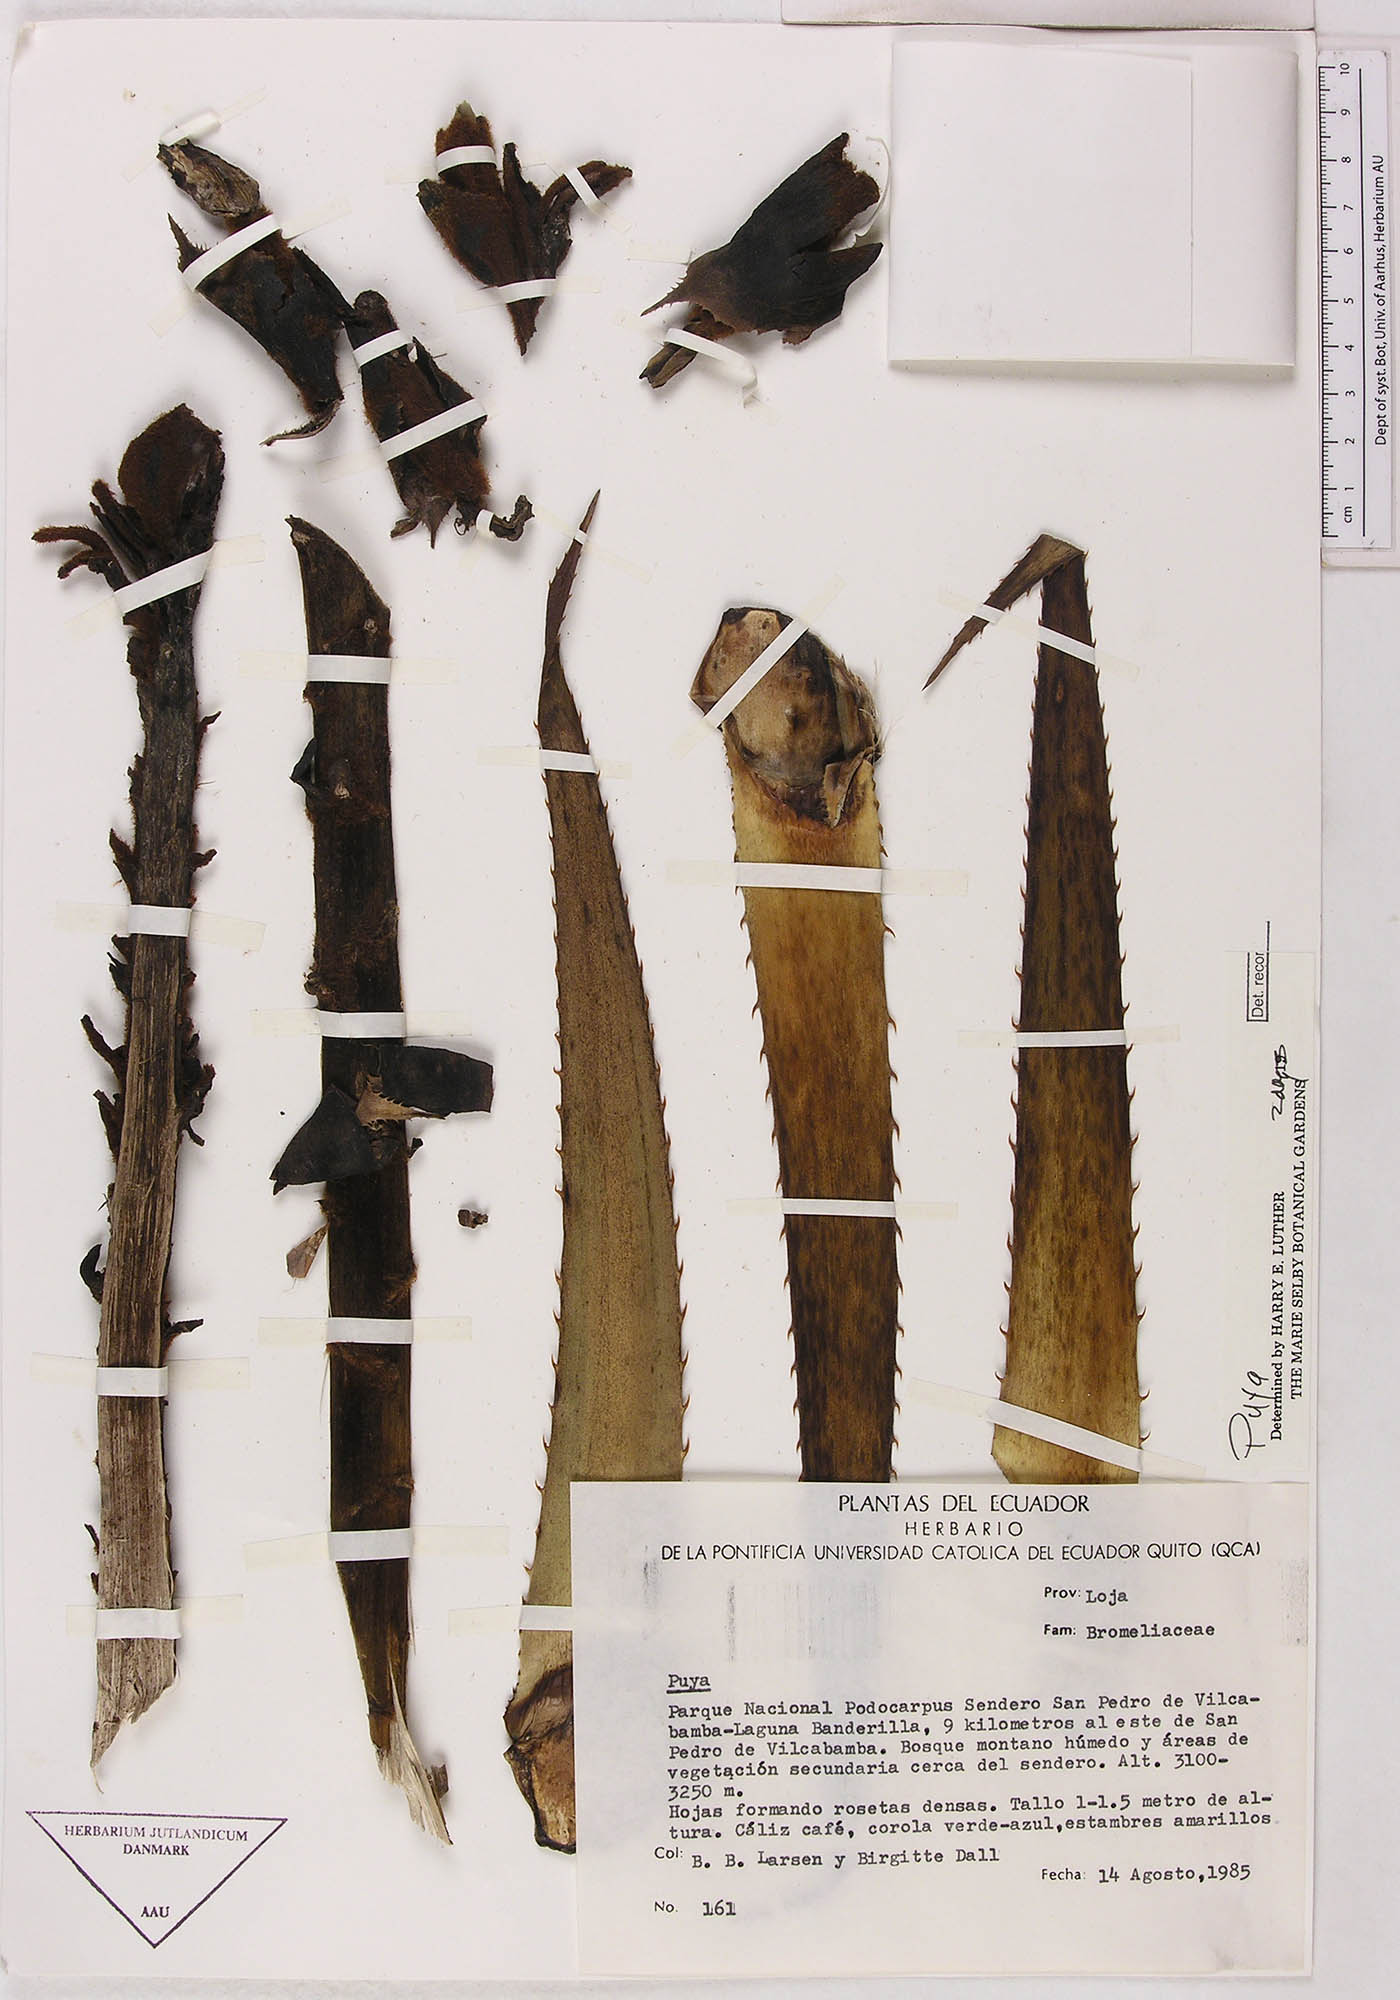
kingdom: Plantae
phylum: Tracheophyta
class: Liliopsida
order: Poales
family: Bromeliaceae
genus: Puya
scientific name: Puya
